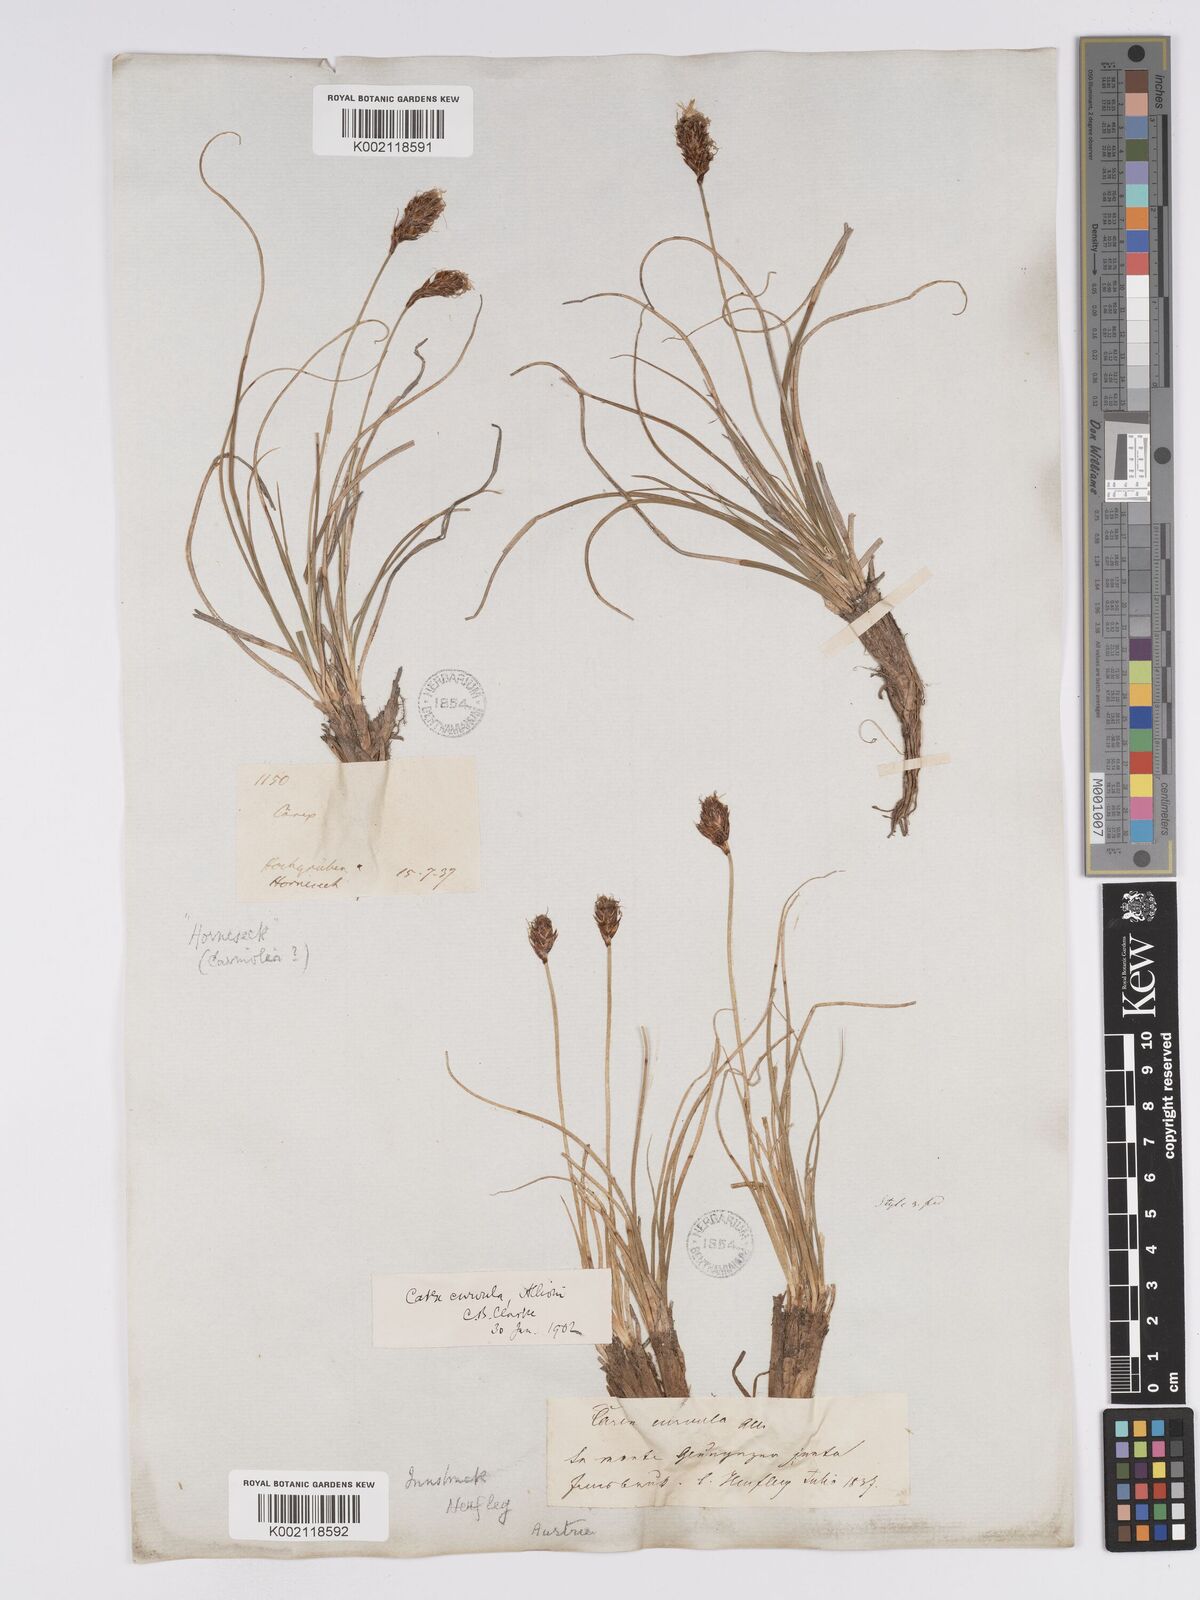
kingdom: Plantae
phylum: Tracheophyta
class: Liliopsida
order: Poales
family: Cyperaceae
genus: Carex
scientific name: Carex curvula
